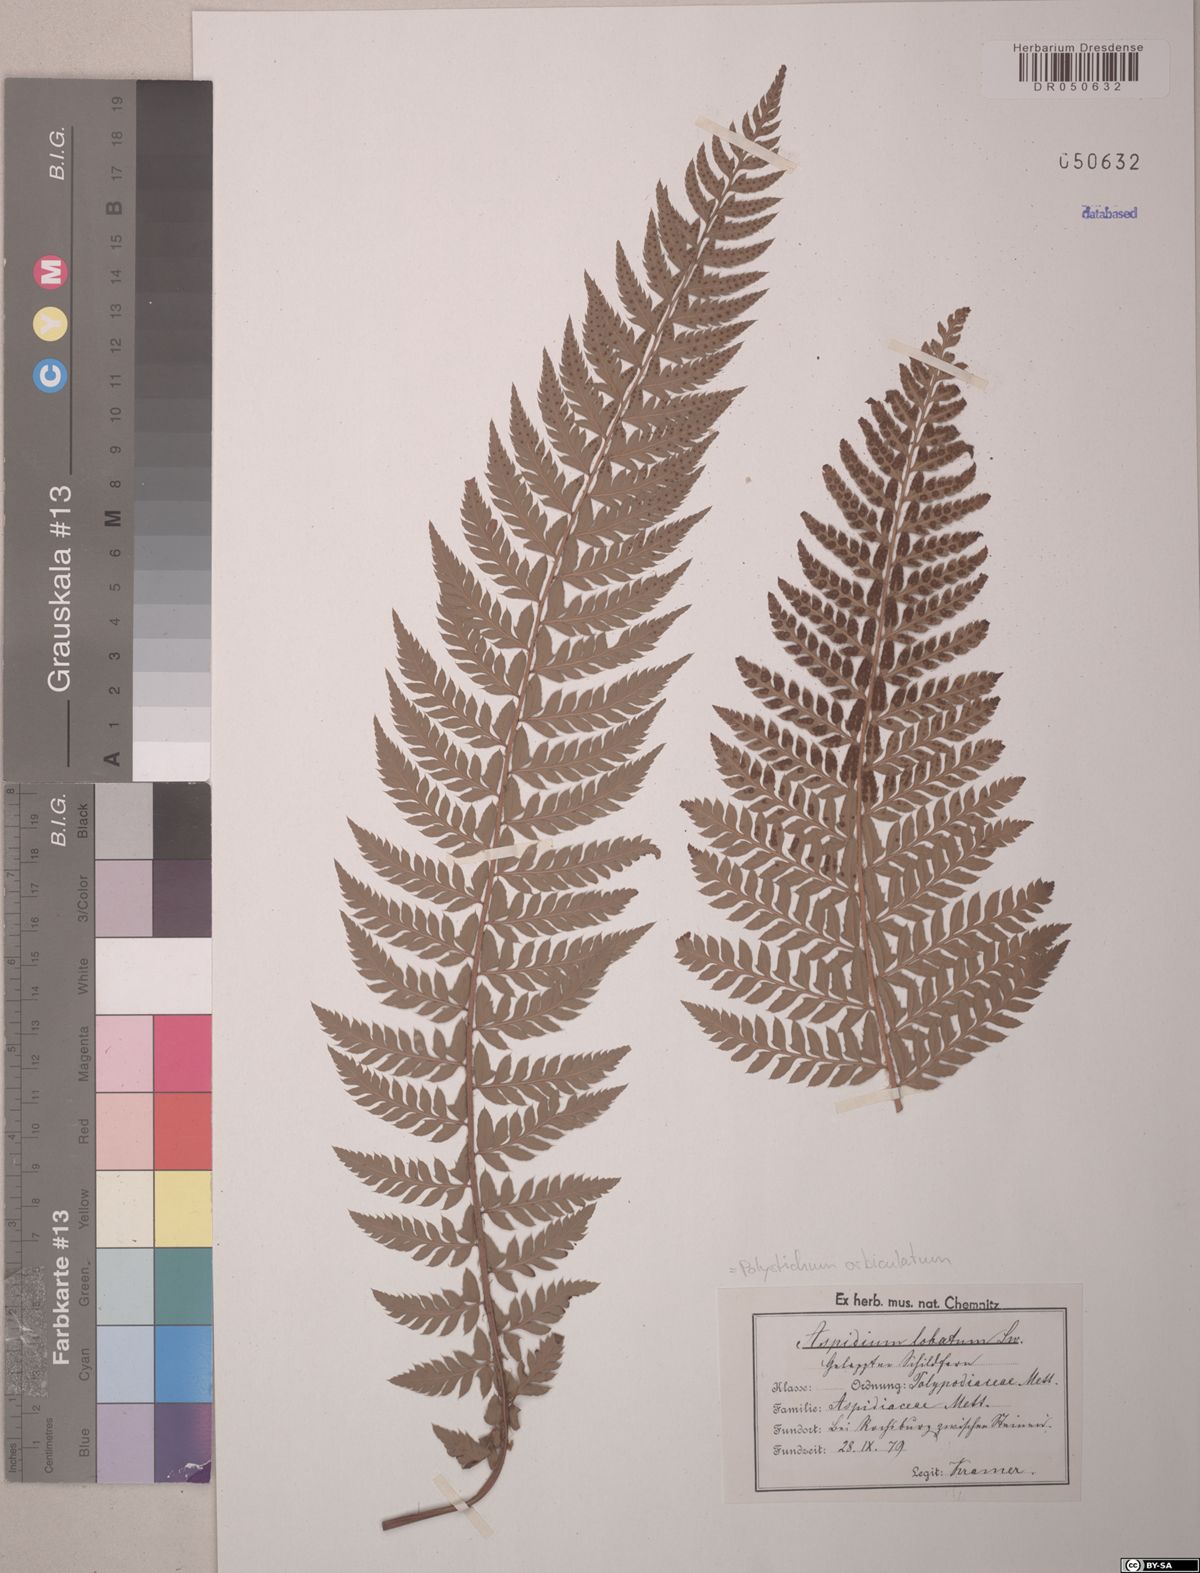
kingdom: Plantae
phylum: Tracheophyta
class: Polypodiopsida
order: Polypodiales
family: Dryopteridaceae
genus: Polystichum
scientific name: Polystichum aculeatum
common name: Hard shield-fern
